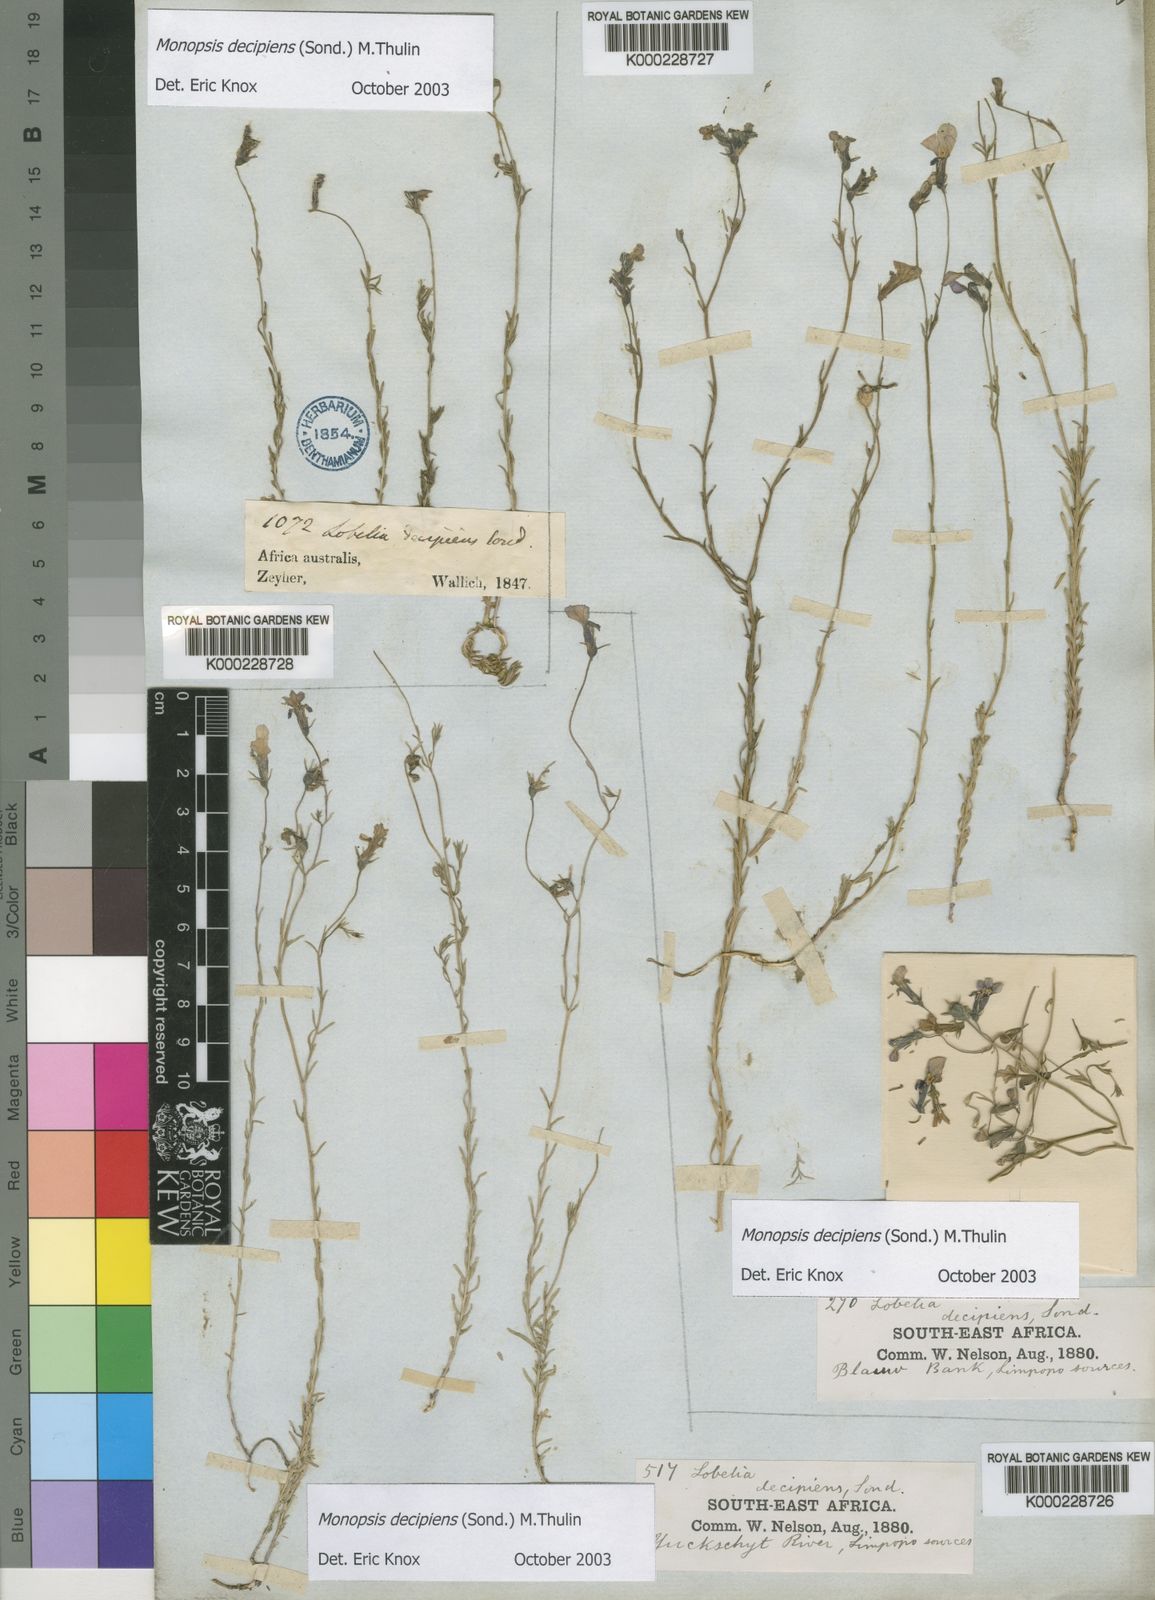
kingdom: Plantae
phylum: Tracheophyta
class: Magnoliopsida
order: Asterales
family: Campanulaceae
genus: Monopsis
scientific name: Monopsis decipiens
